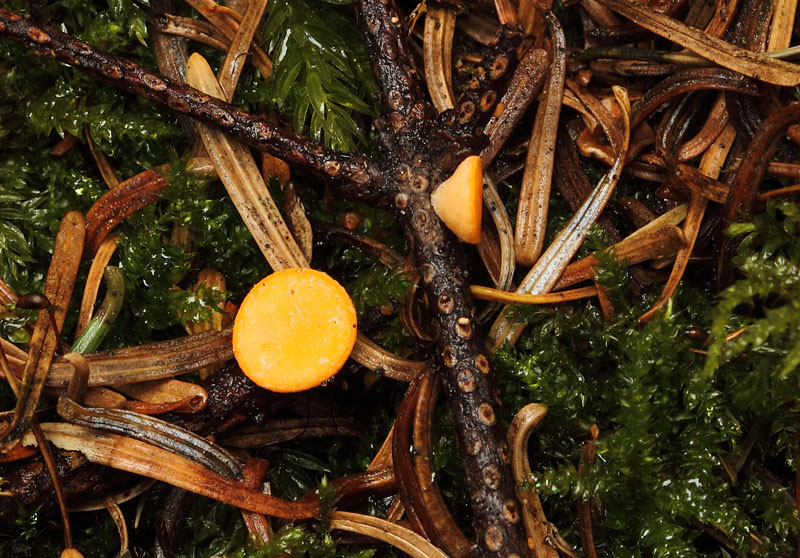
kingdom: Fungi
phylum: Ascomycota
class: Pezizomycetes
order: Pezizales
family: Sarcoscyphaceae
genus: Pithya
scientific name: Pithya vulgaris
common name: stor dukatbæger
